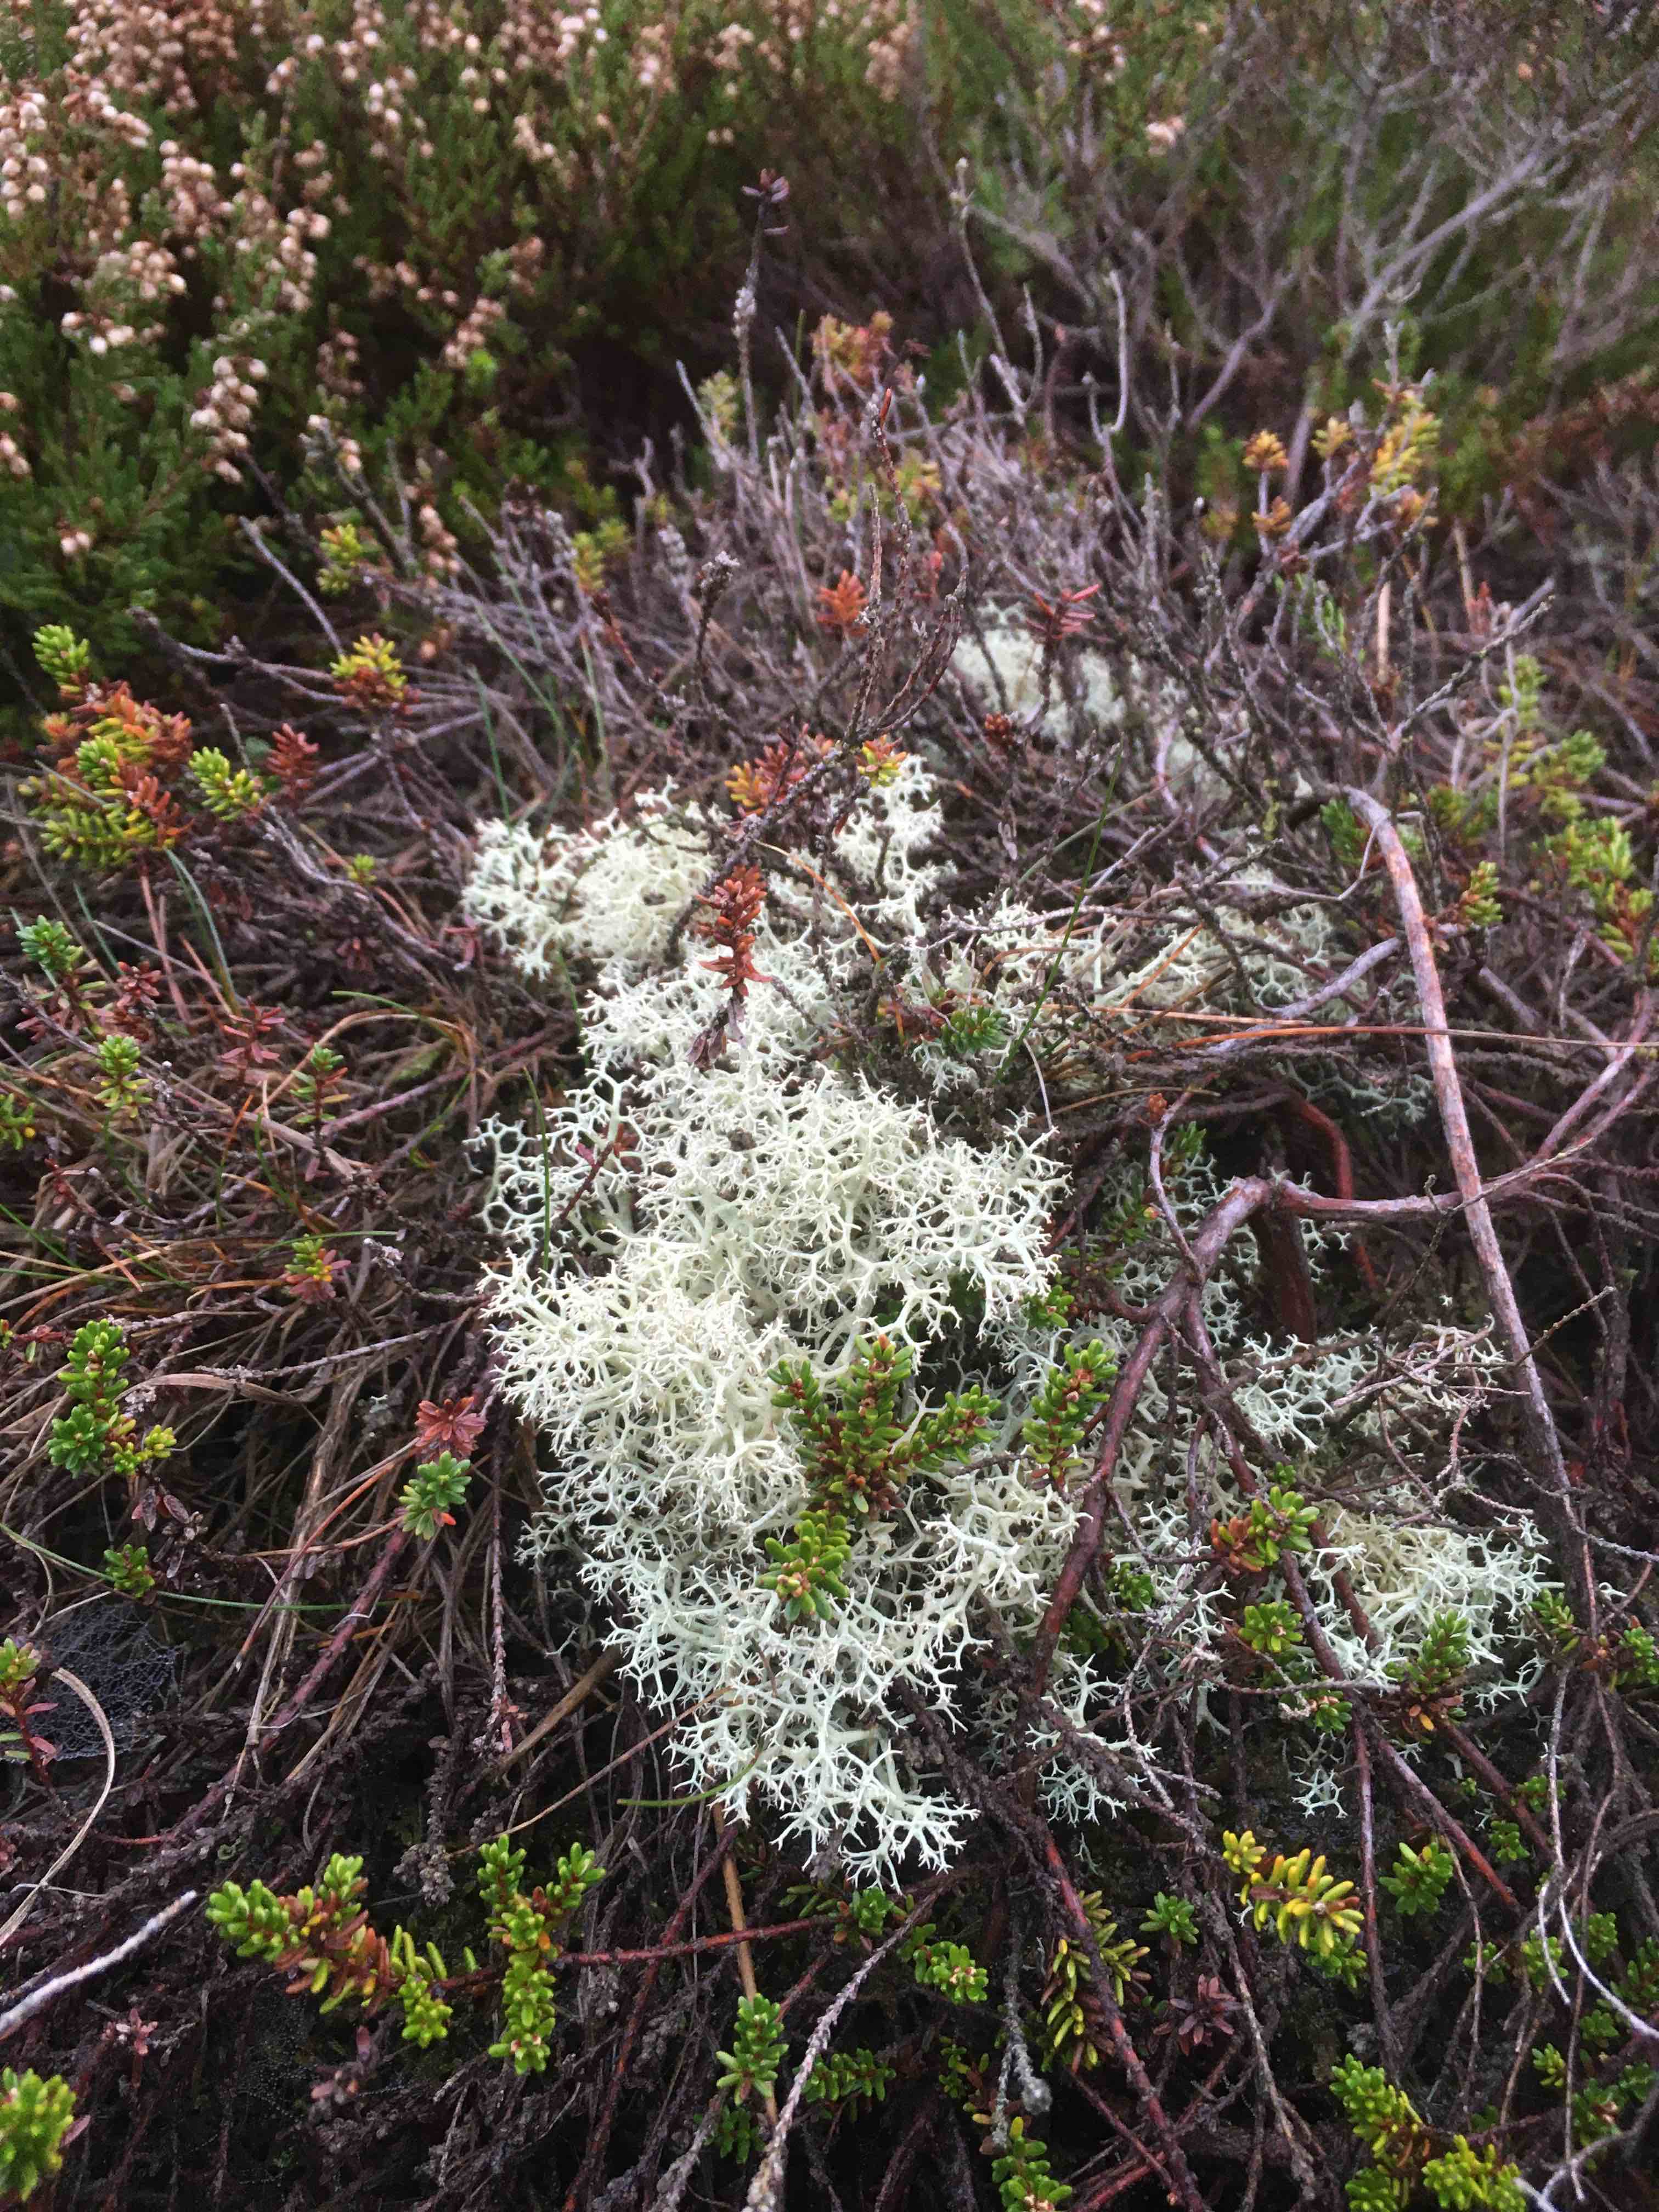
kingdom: Fungi
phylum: Ascomycota
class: Lecanoromycetes
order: Lecanorales
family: Cladoniaceae
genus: Cladonia
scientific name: Cladonia portentosa
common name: hede-rensdyrlav
